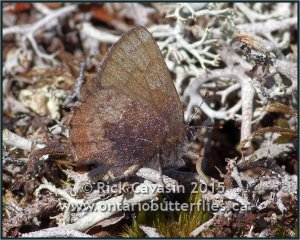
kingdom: Animalia
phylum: Arthropoda
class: Insecta
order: Lepidoptera
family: Lycaenidae
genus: Incisalia
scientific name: Incisalia irioides
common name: Brown Elfin
